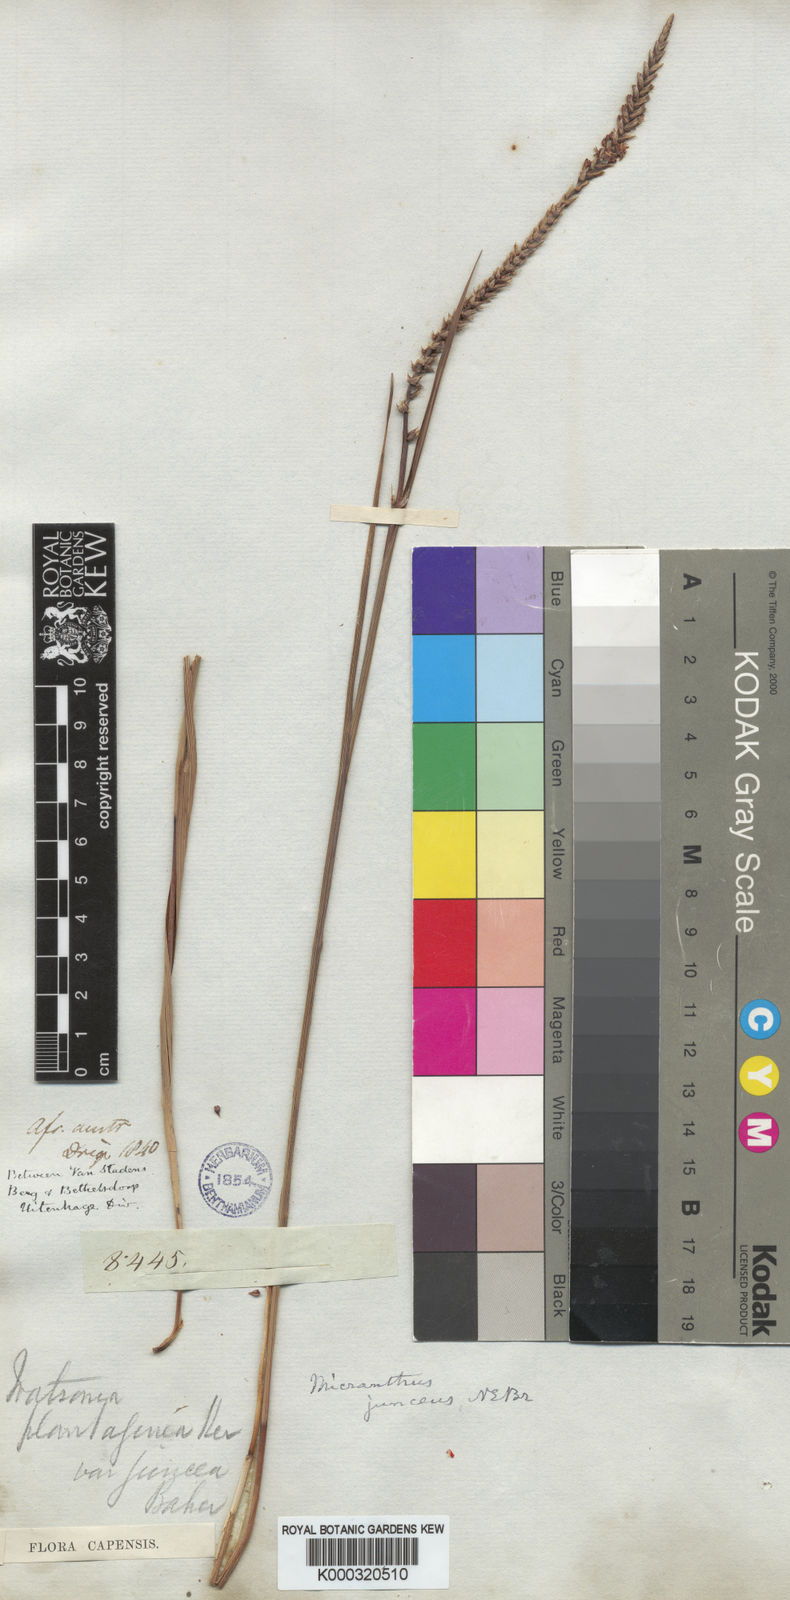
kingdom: Plantae
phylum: Tracheophyta
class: Liliopsida
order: Asparagales
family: Iridaceae
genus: Micranthus
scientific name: Micranthus plantagineus
